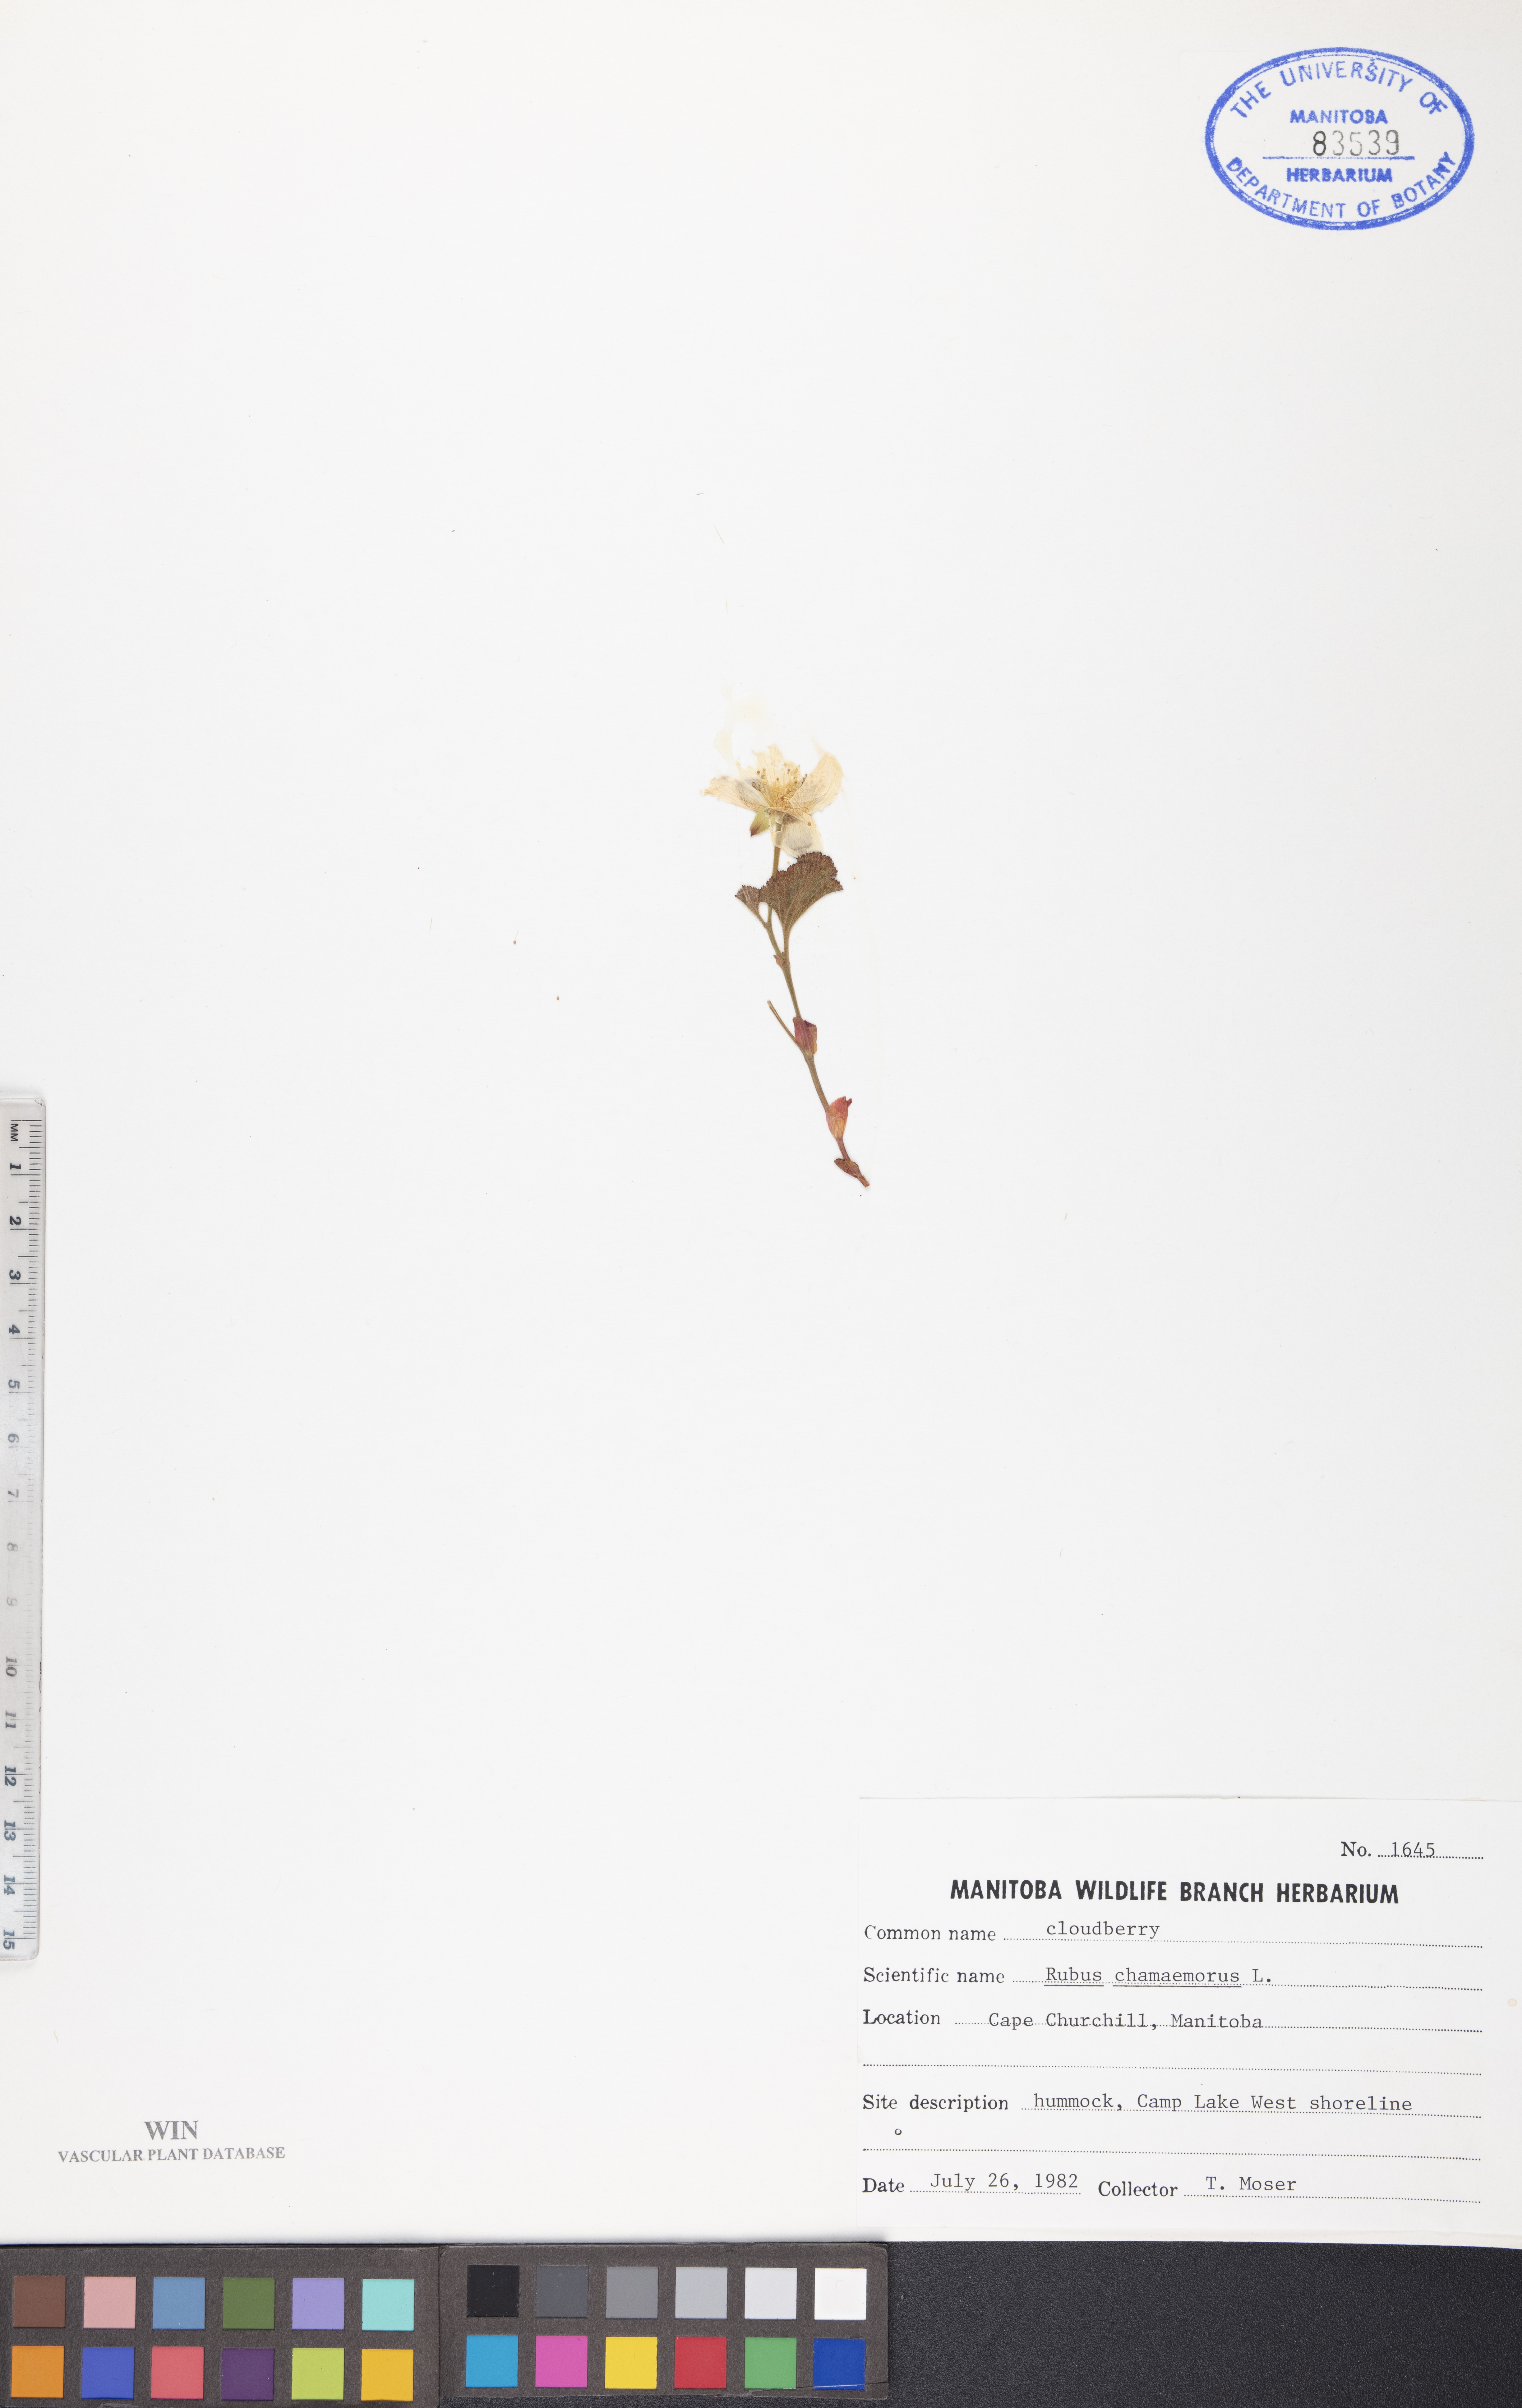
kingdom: Plantae
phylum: Tracheophyta
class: Magnoliopsida
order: Rosales
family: Rosaceae
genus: Rubus
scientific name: Rubus chamaemorus
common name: Cloudberry
